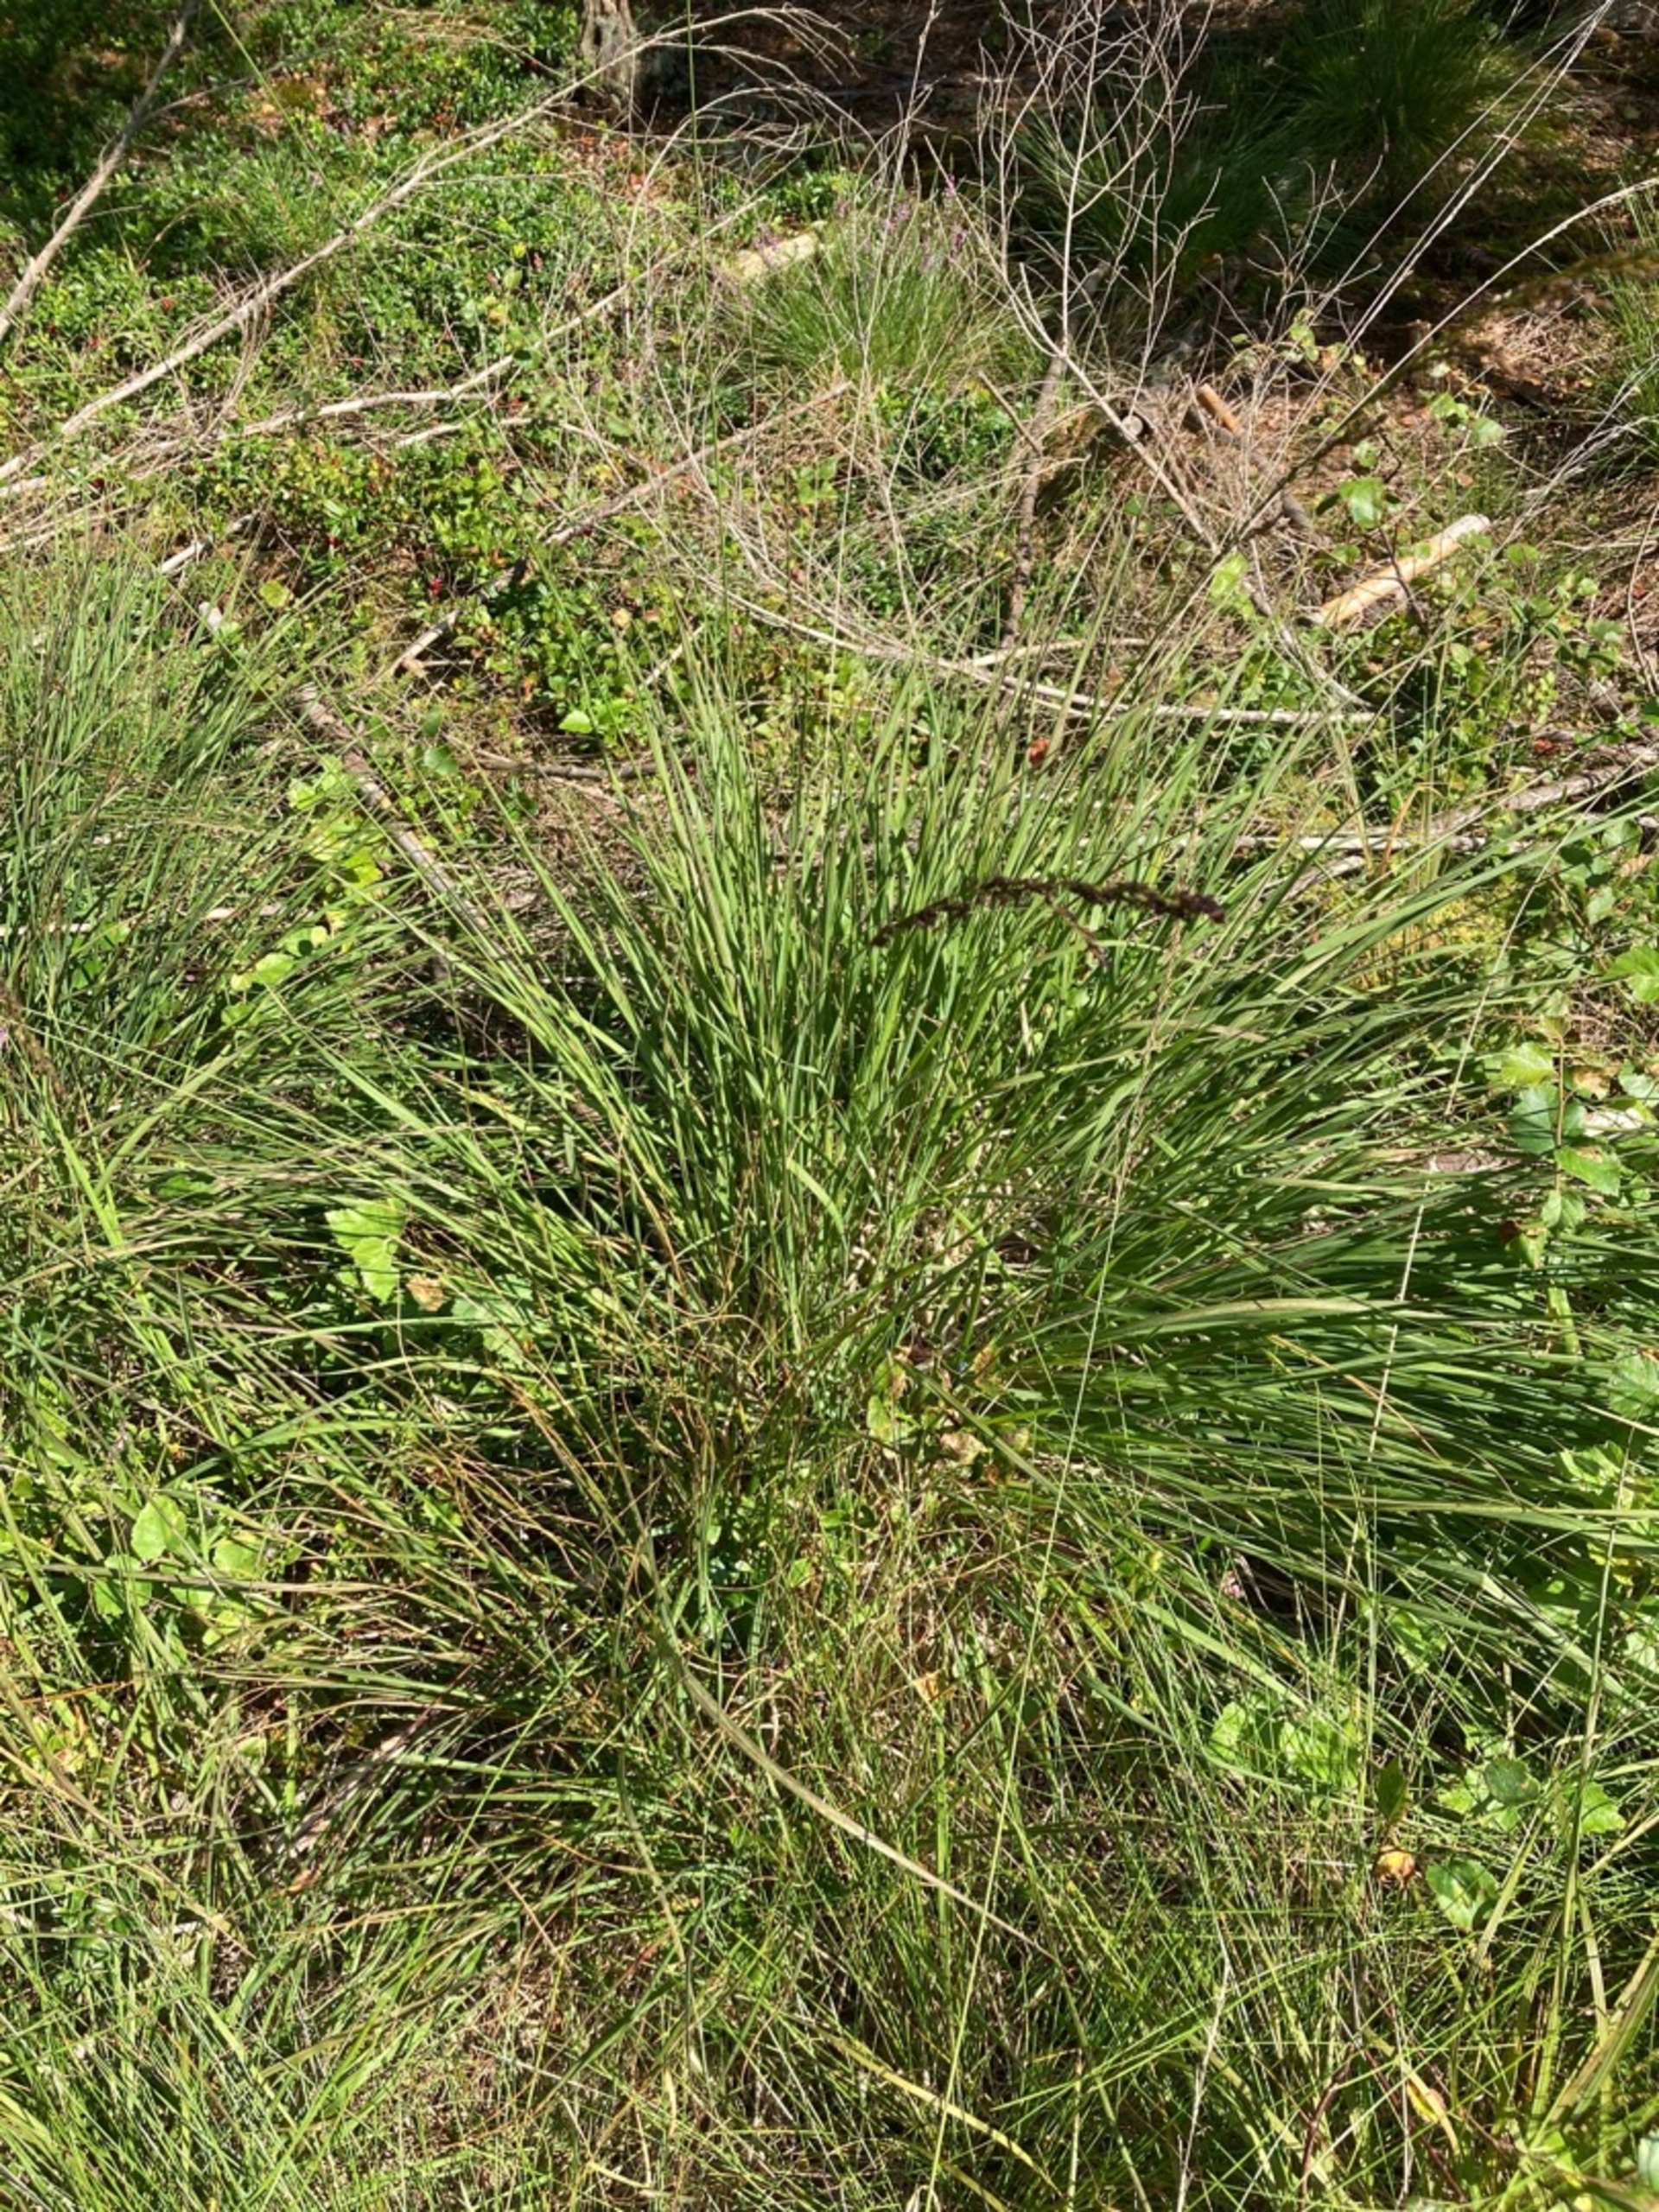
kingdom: Plantae
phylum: Tracheophyta
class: Liliopsida
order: Poales
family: Poaceae
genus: Molinia
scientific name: Molinia caerulea
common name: Blåtop
